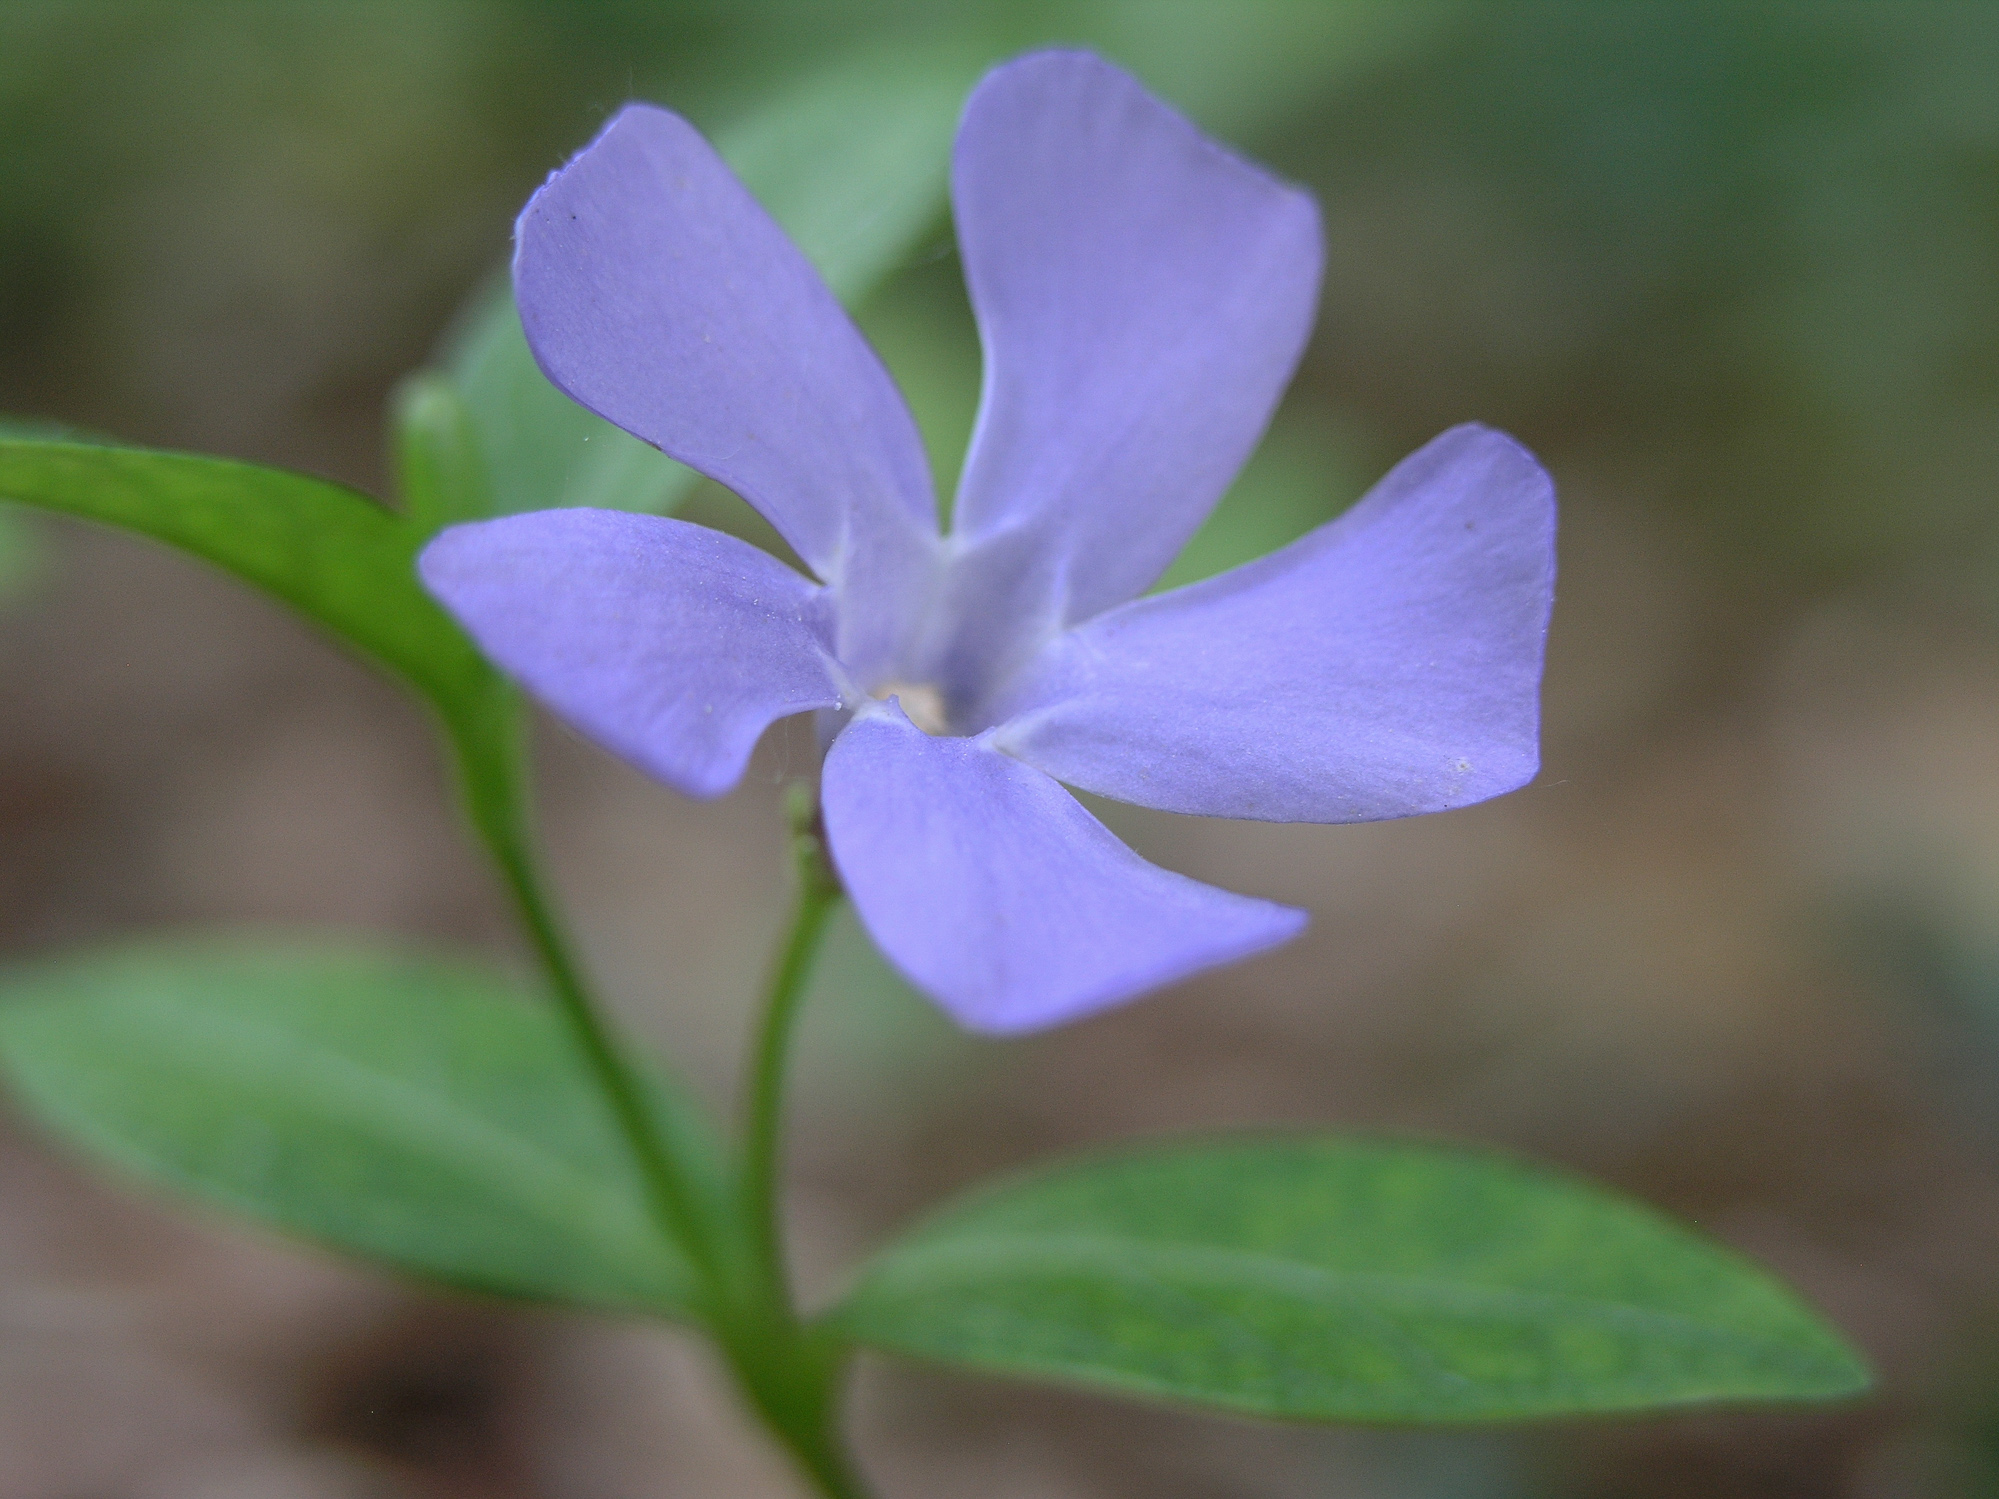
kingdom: Plantae
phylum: Tracheophyta
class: Magnoliopsida
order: Gentianales
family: Apocynaceae
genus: Vinca
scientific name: Vinca minor
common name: Lesser periwinkle
